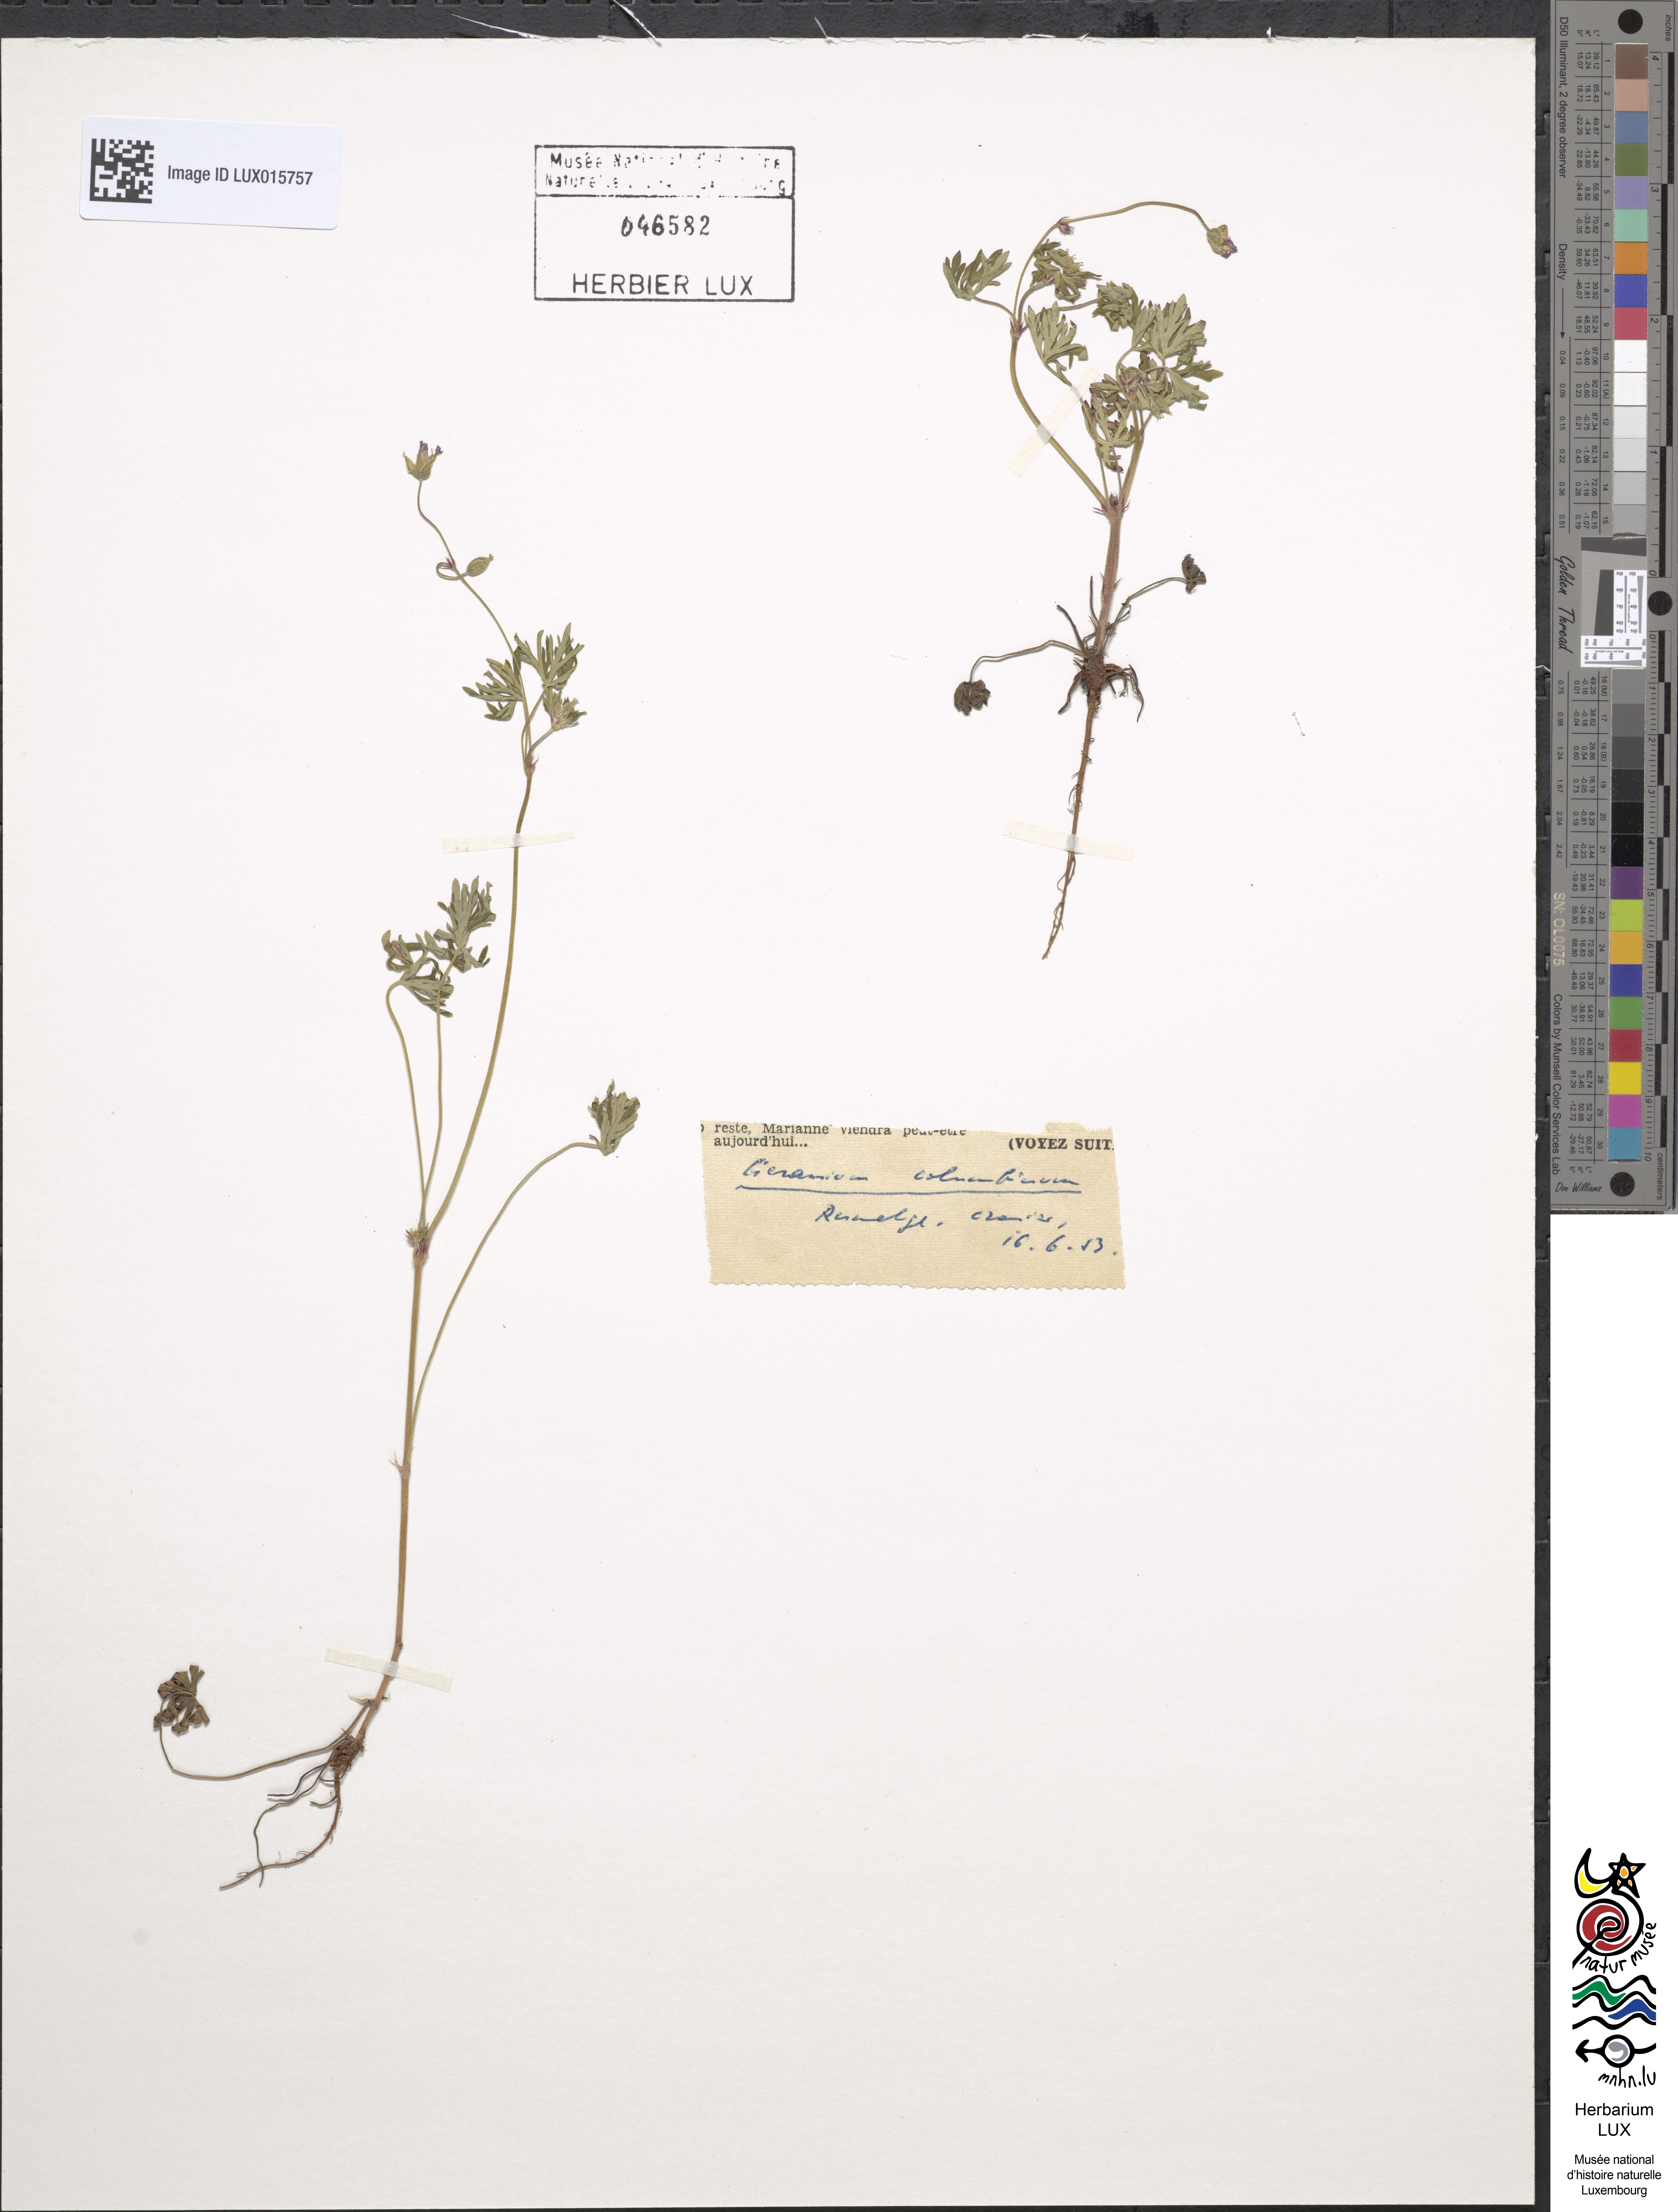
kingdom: Plantae
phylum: Tracheophyta
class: Magnoliopsida
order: Geraniales
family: Geraniaceae
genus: Geranium
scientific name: Geranium columbinum
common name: Long-stalked crane's-bill
